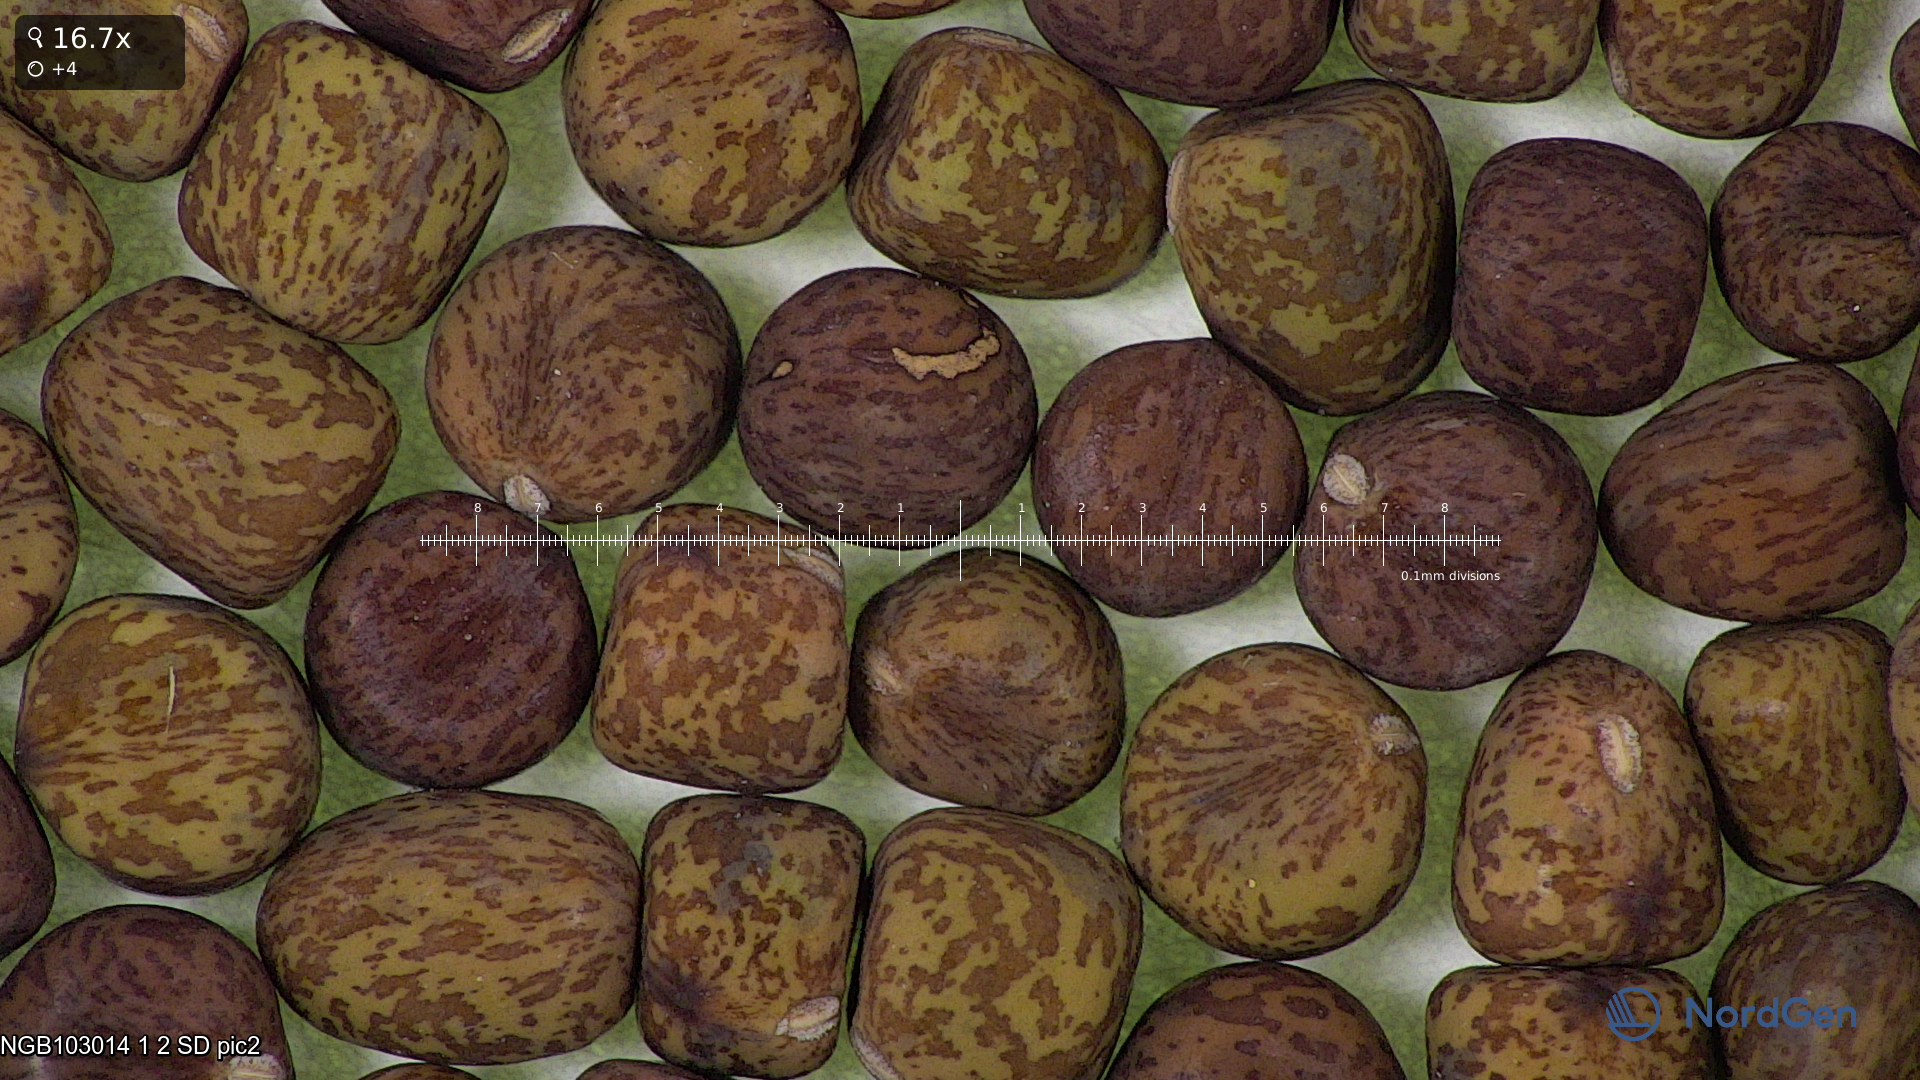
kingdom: Plantae
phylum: Tracheophyta
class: Magnoliopsida
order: Fabales
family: Fabaceae
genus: Lathyrus
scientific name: Lathyrus oleraceus
